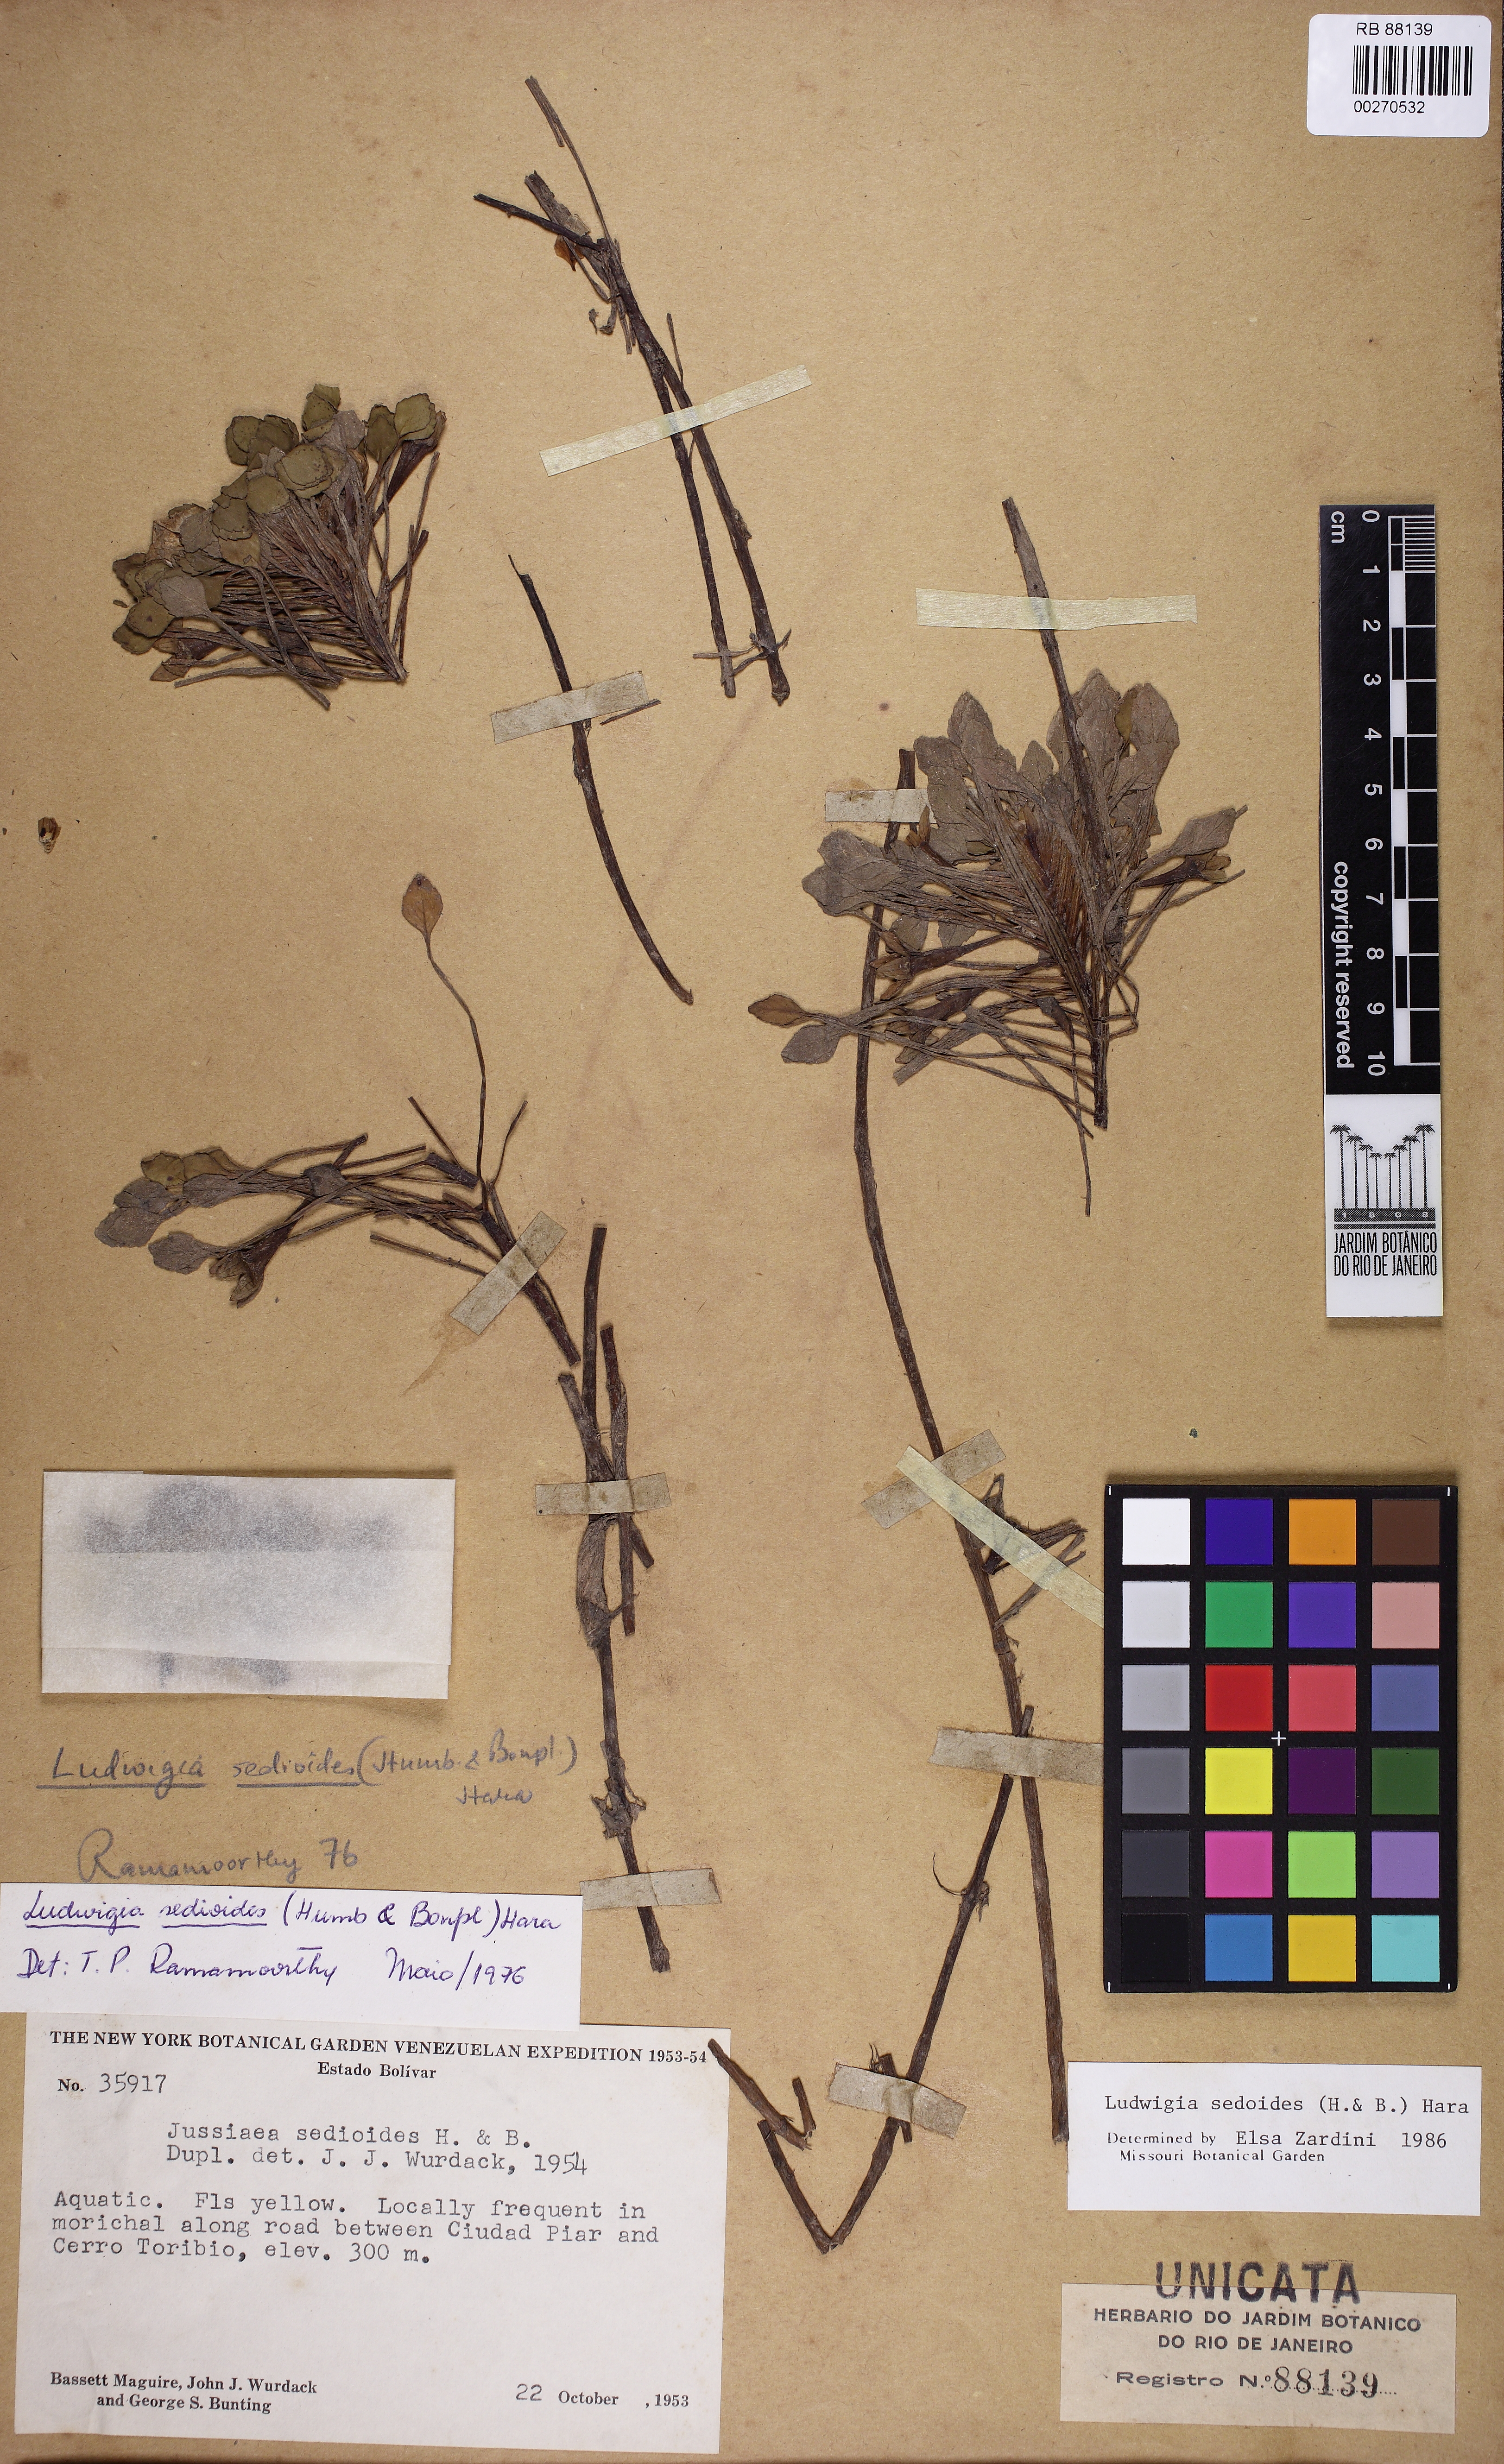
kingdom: Plantae
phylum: Tracheophyta
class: Magnoliopsida
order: Myrtales
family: Onagraceae
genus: Ludwigia
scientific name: Ludwigia sedioides
